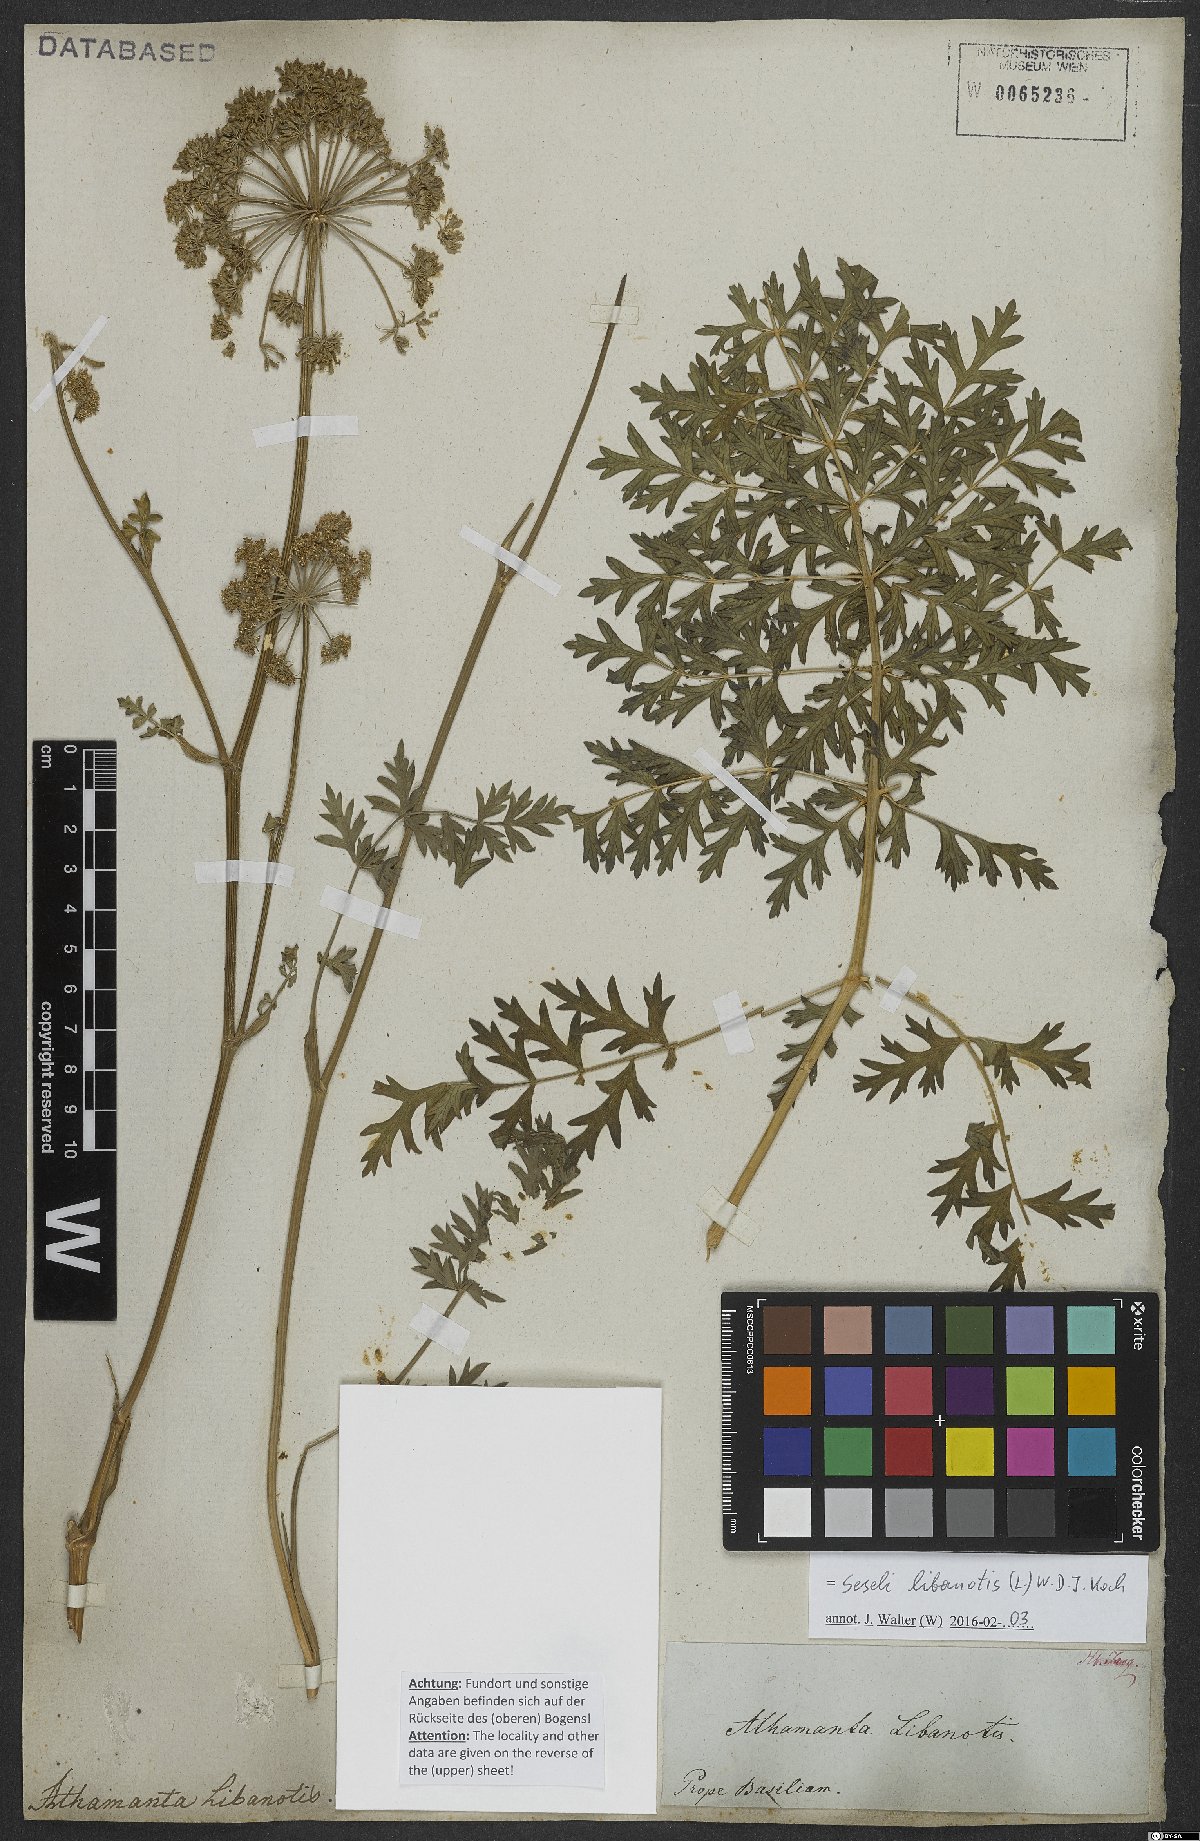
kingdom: Plantae
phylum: Tracheophyta
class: Magnoliopsida
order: Apiales
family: Apiaceae
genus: Seseli
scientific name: Seseli libanotis
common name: Mooncarrot
